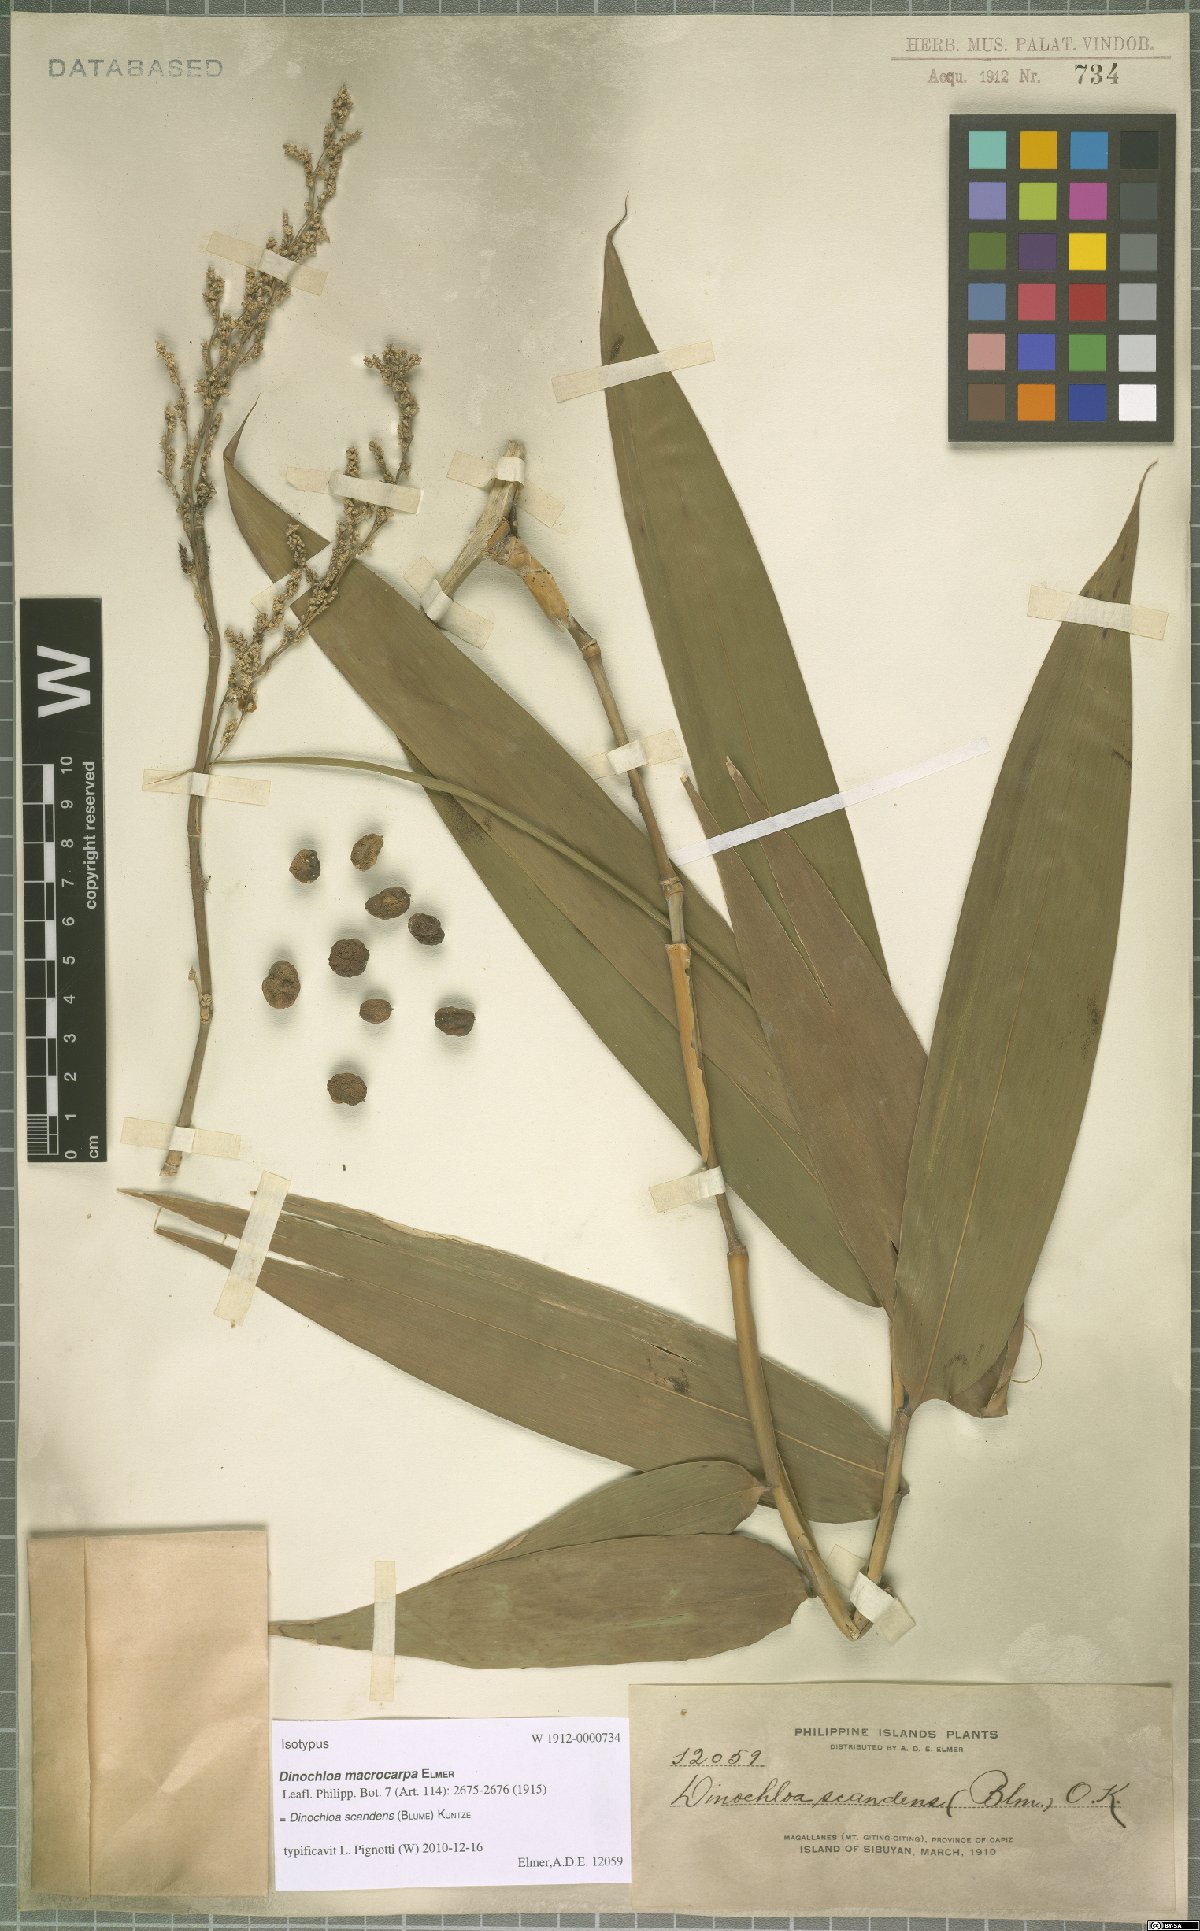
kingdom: Plantae
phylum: Tracheophyta
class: Liliopsida
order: Poales
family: Poaceae
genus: Dinochloa
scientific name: Dinochloa scandens
